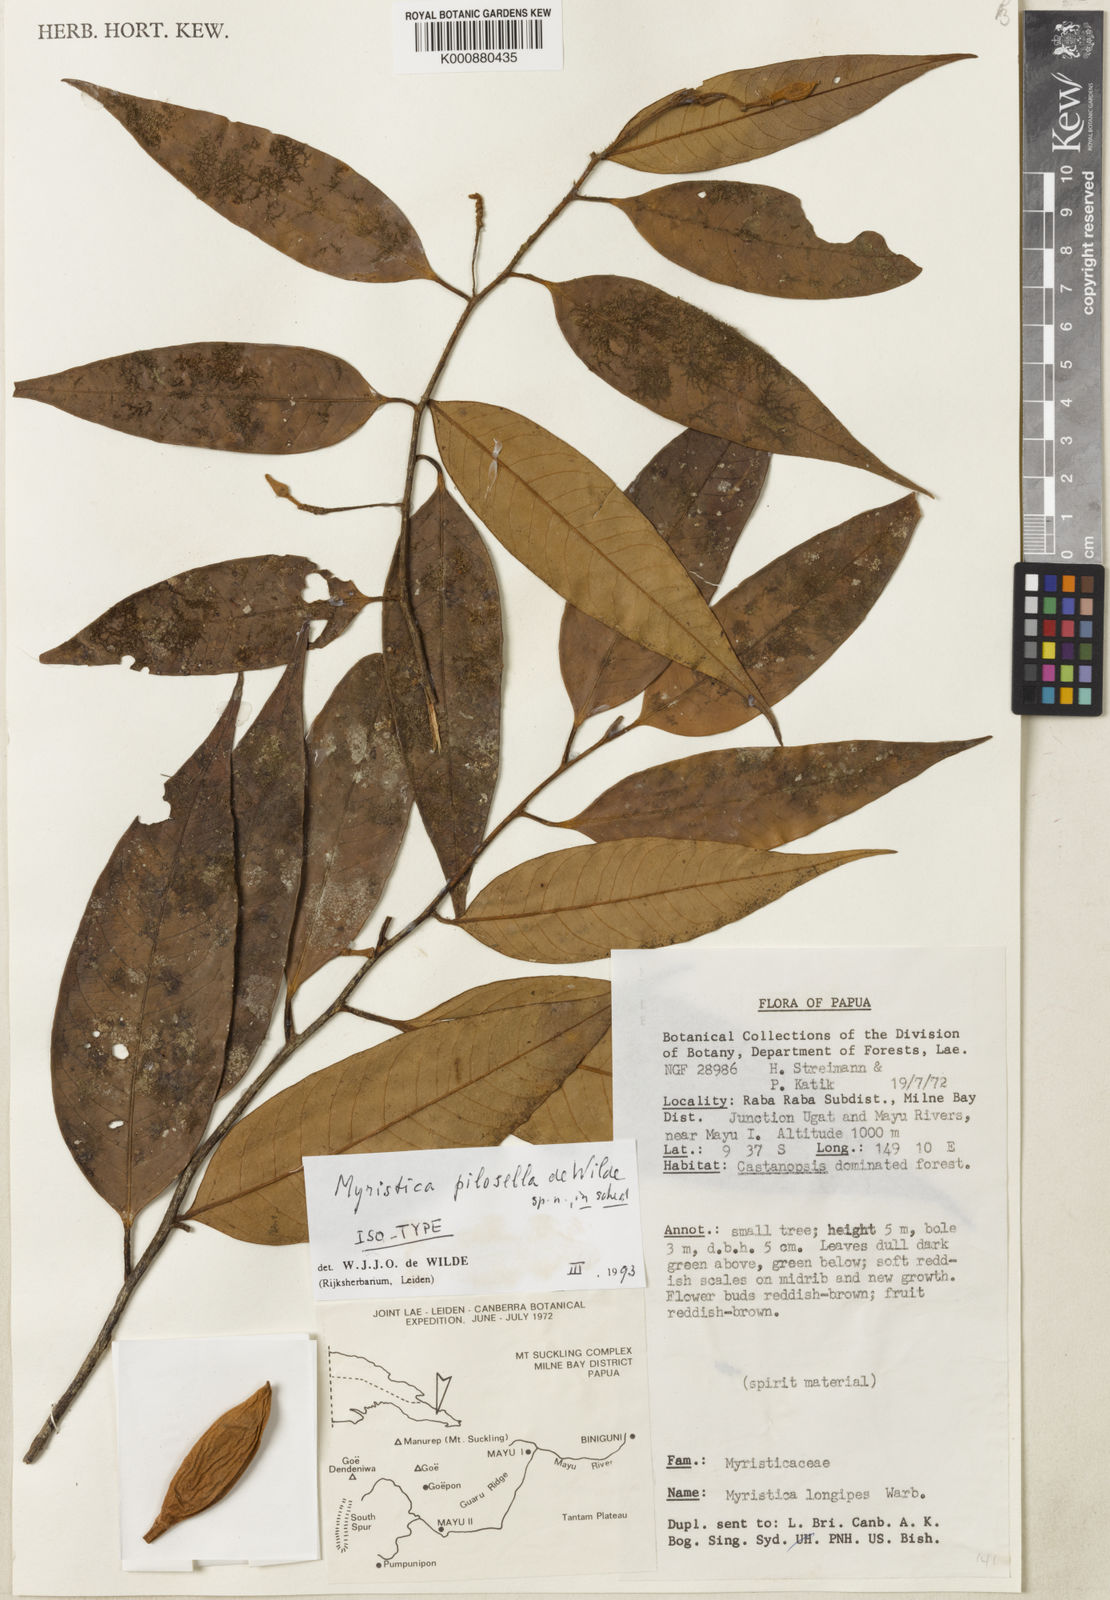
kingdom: Plantae
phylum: Tracheophyta
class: Magnoliopsida
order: Magnoliales
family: Myristicaceae
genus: Myristica
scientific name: Myristica pilosella
